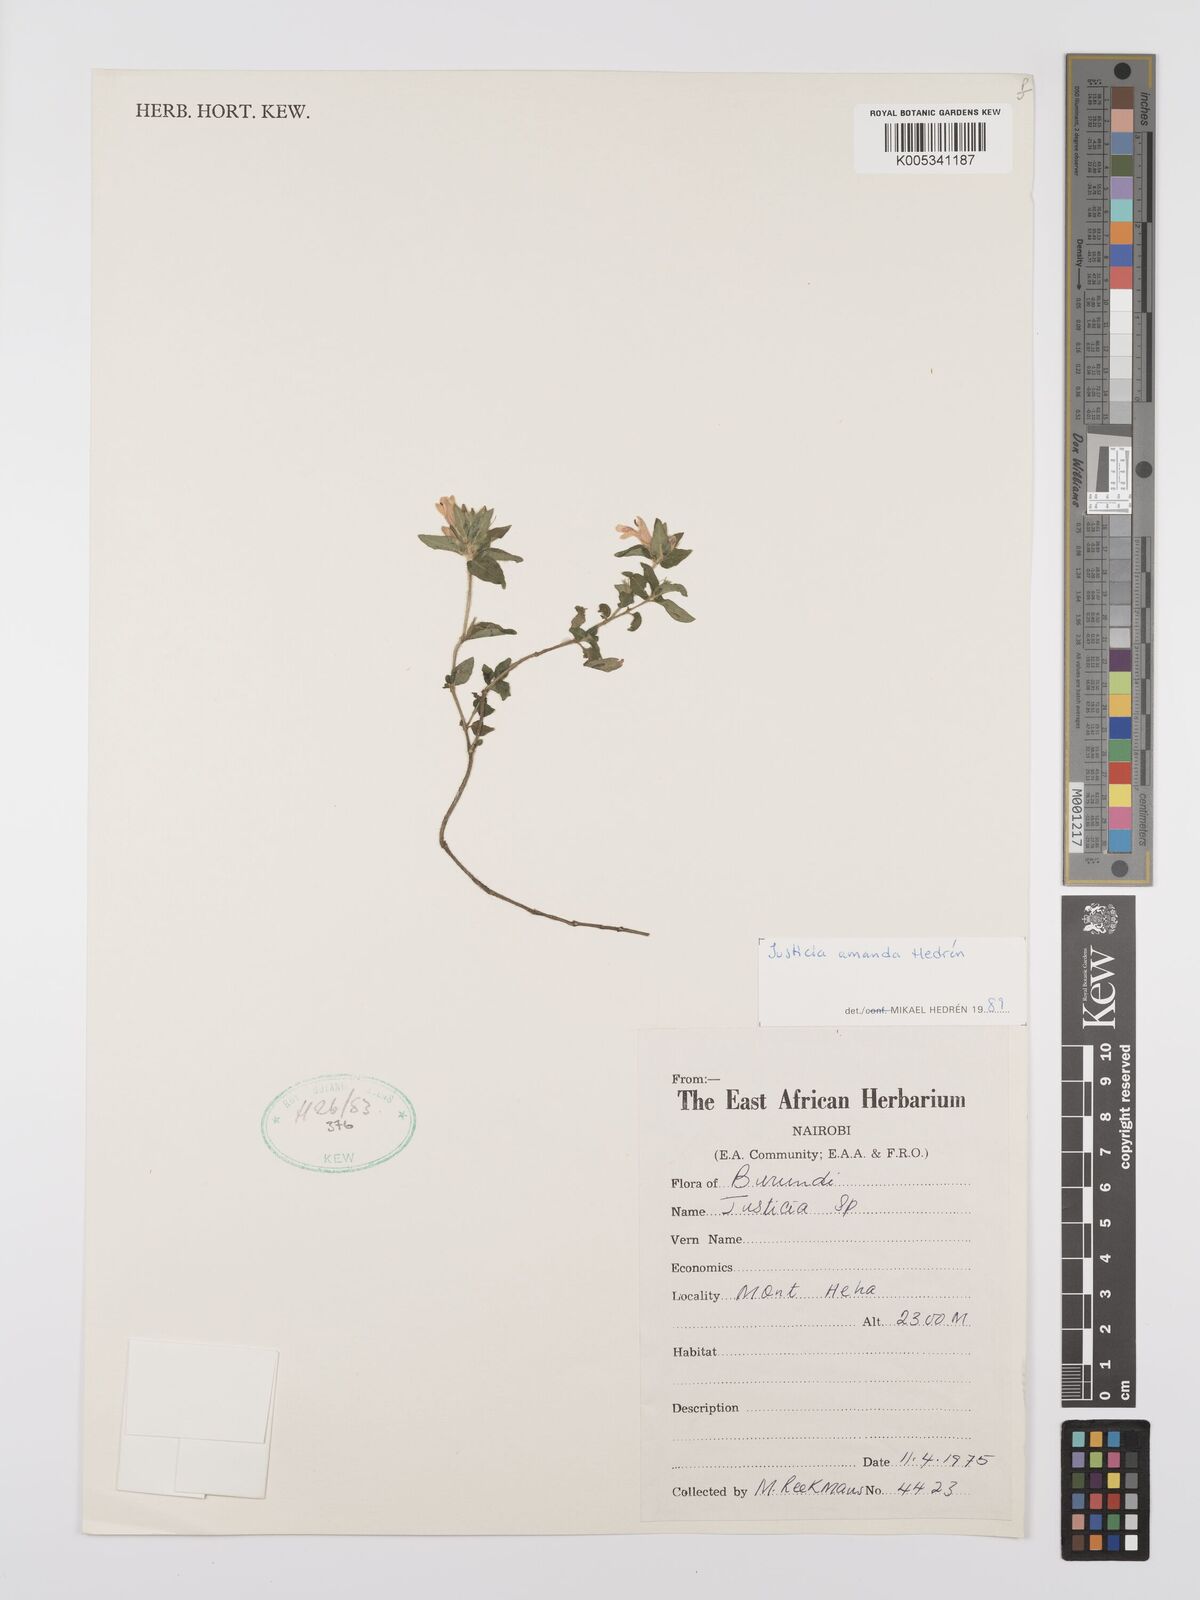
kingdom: Plantae
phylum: Tracheophyta
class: Magnoliopsida
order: Lamiales
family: Acanthaceae
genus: Justicia
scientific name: Justicia amanda
